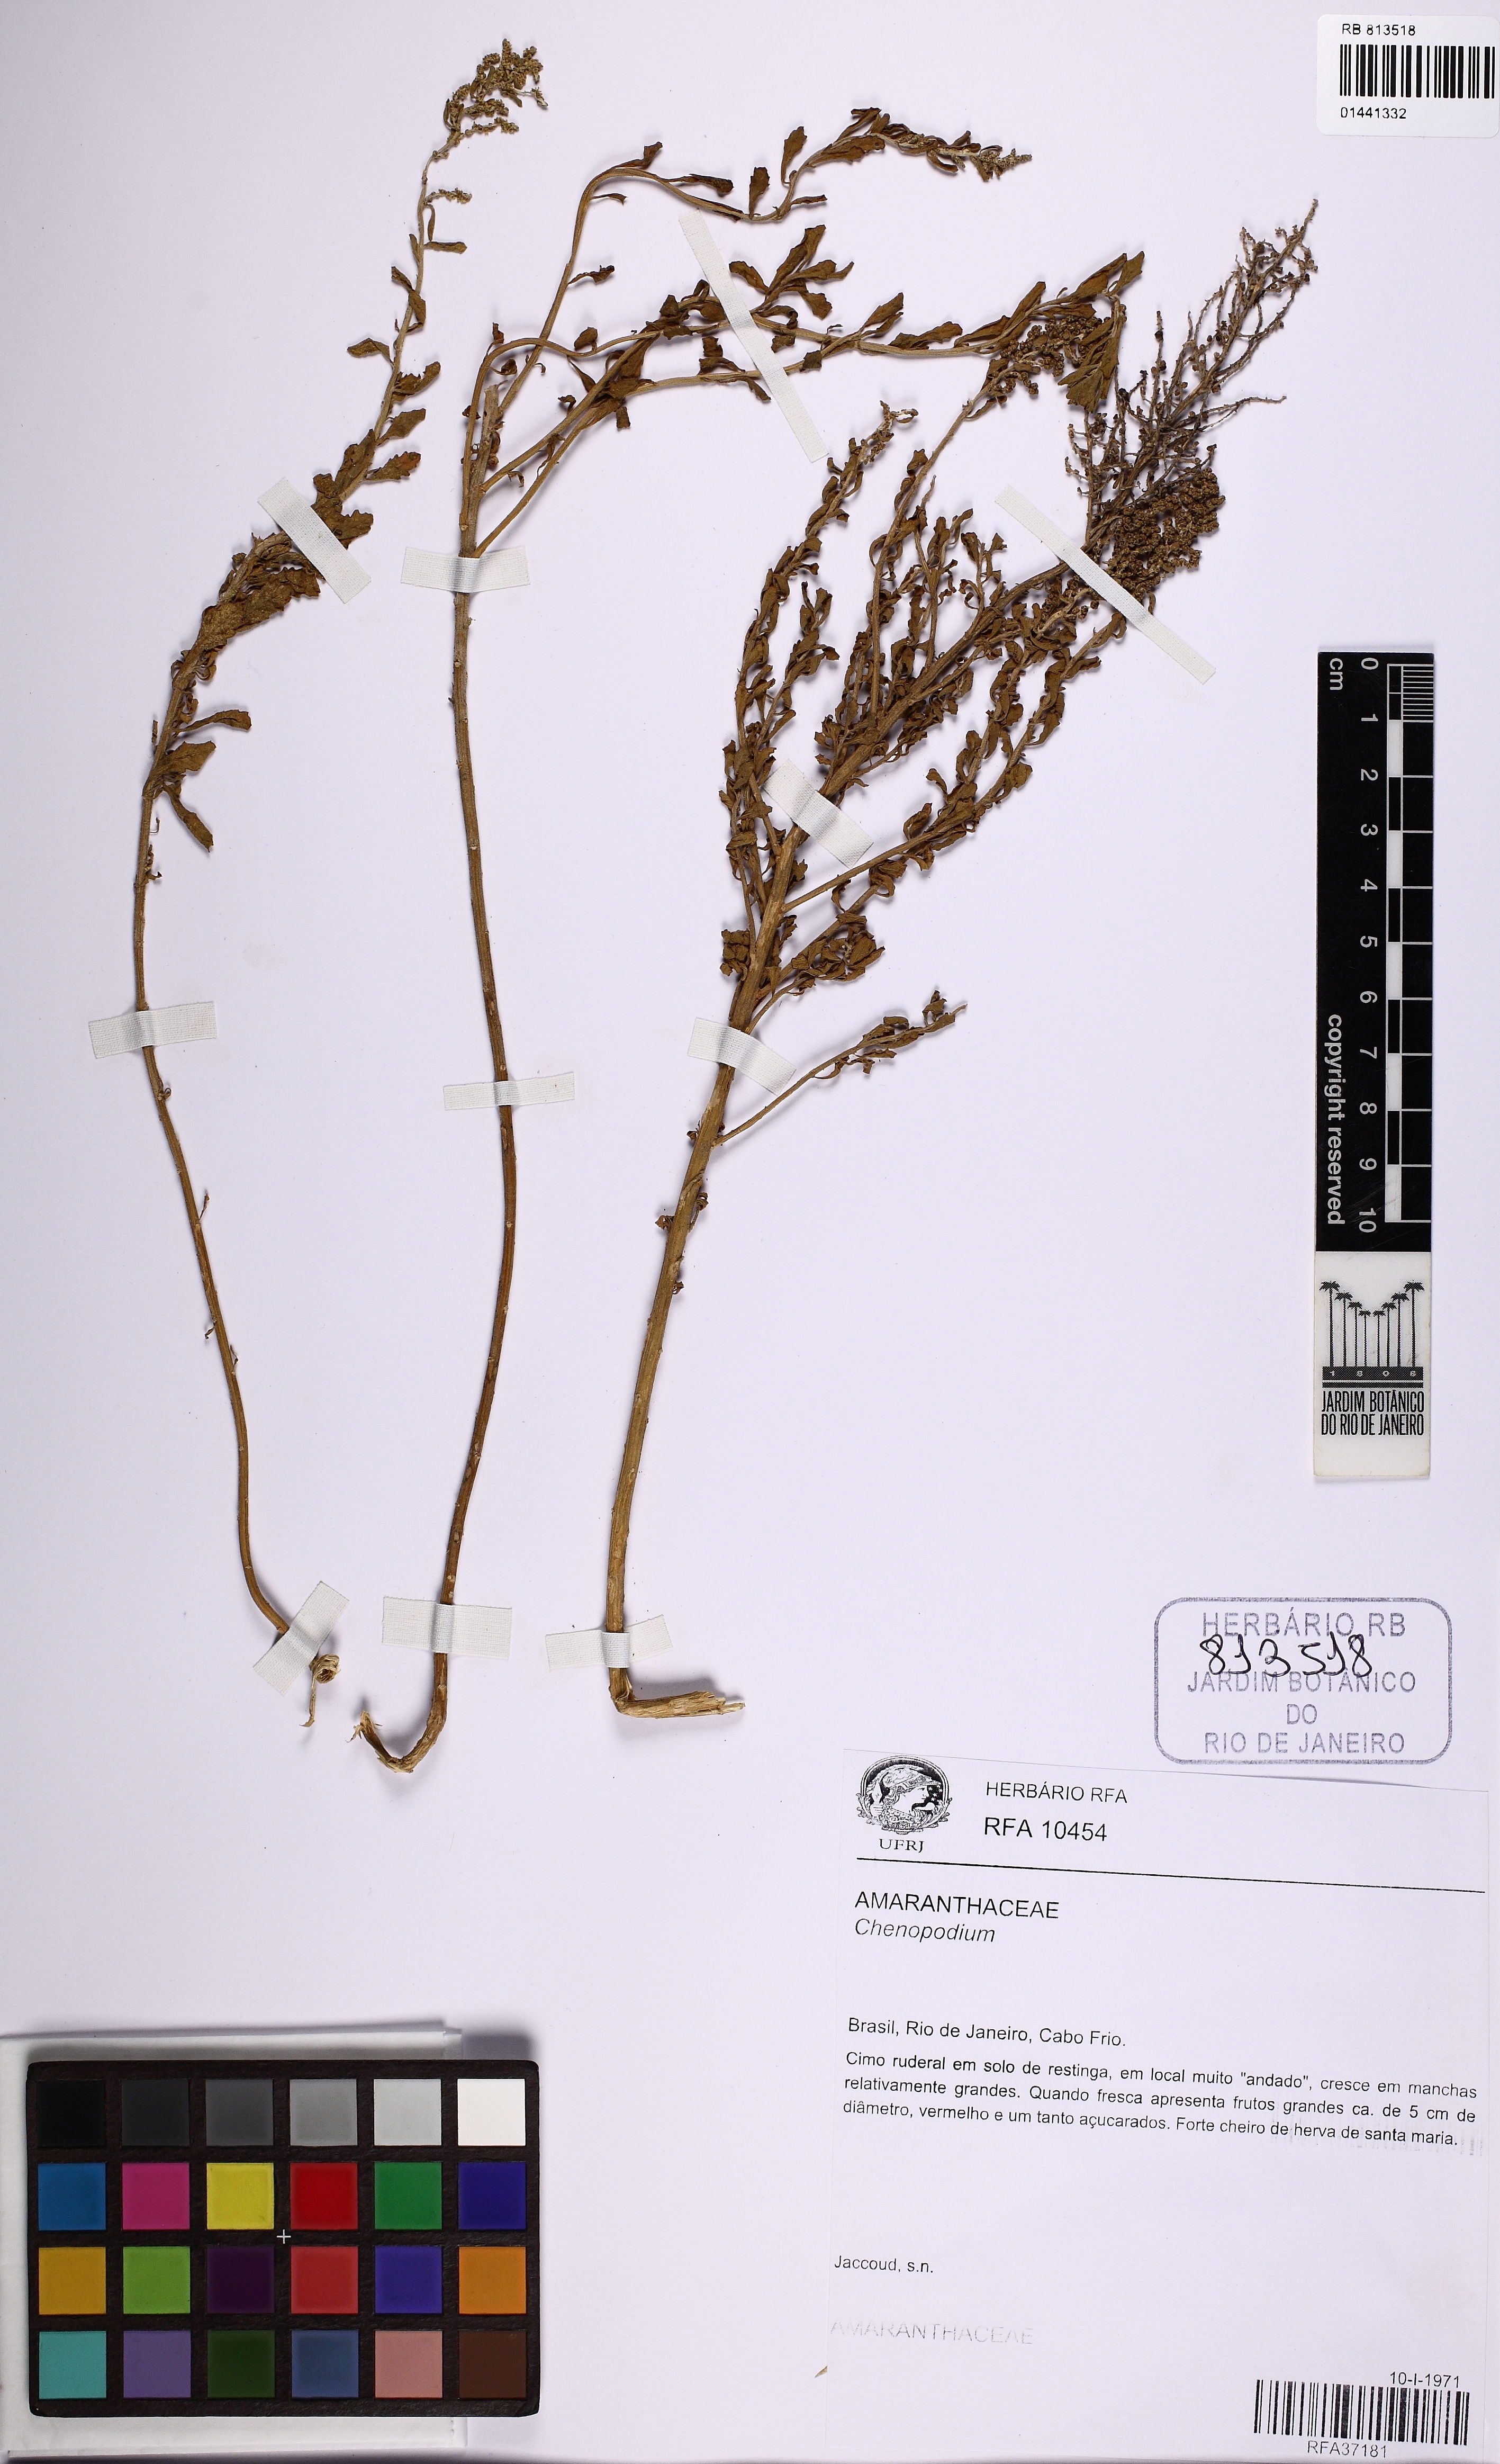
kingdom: Plantae
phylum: Tracheophyta
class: Magnoliopsida
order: Caryophyllales
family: Amaranthaceae
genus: Chenopodium
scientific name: Chenopodium
